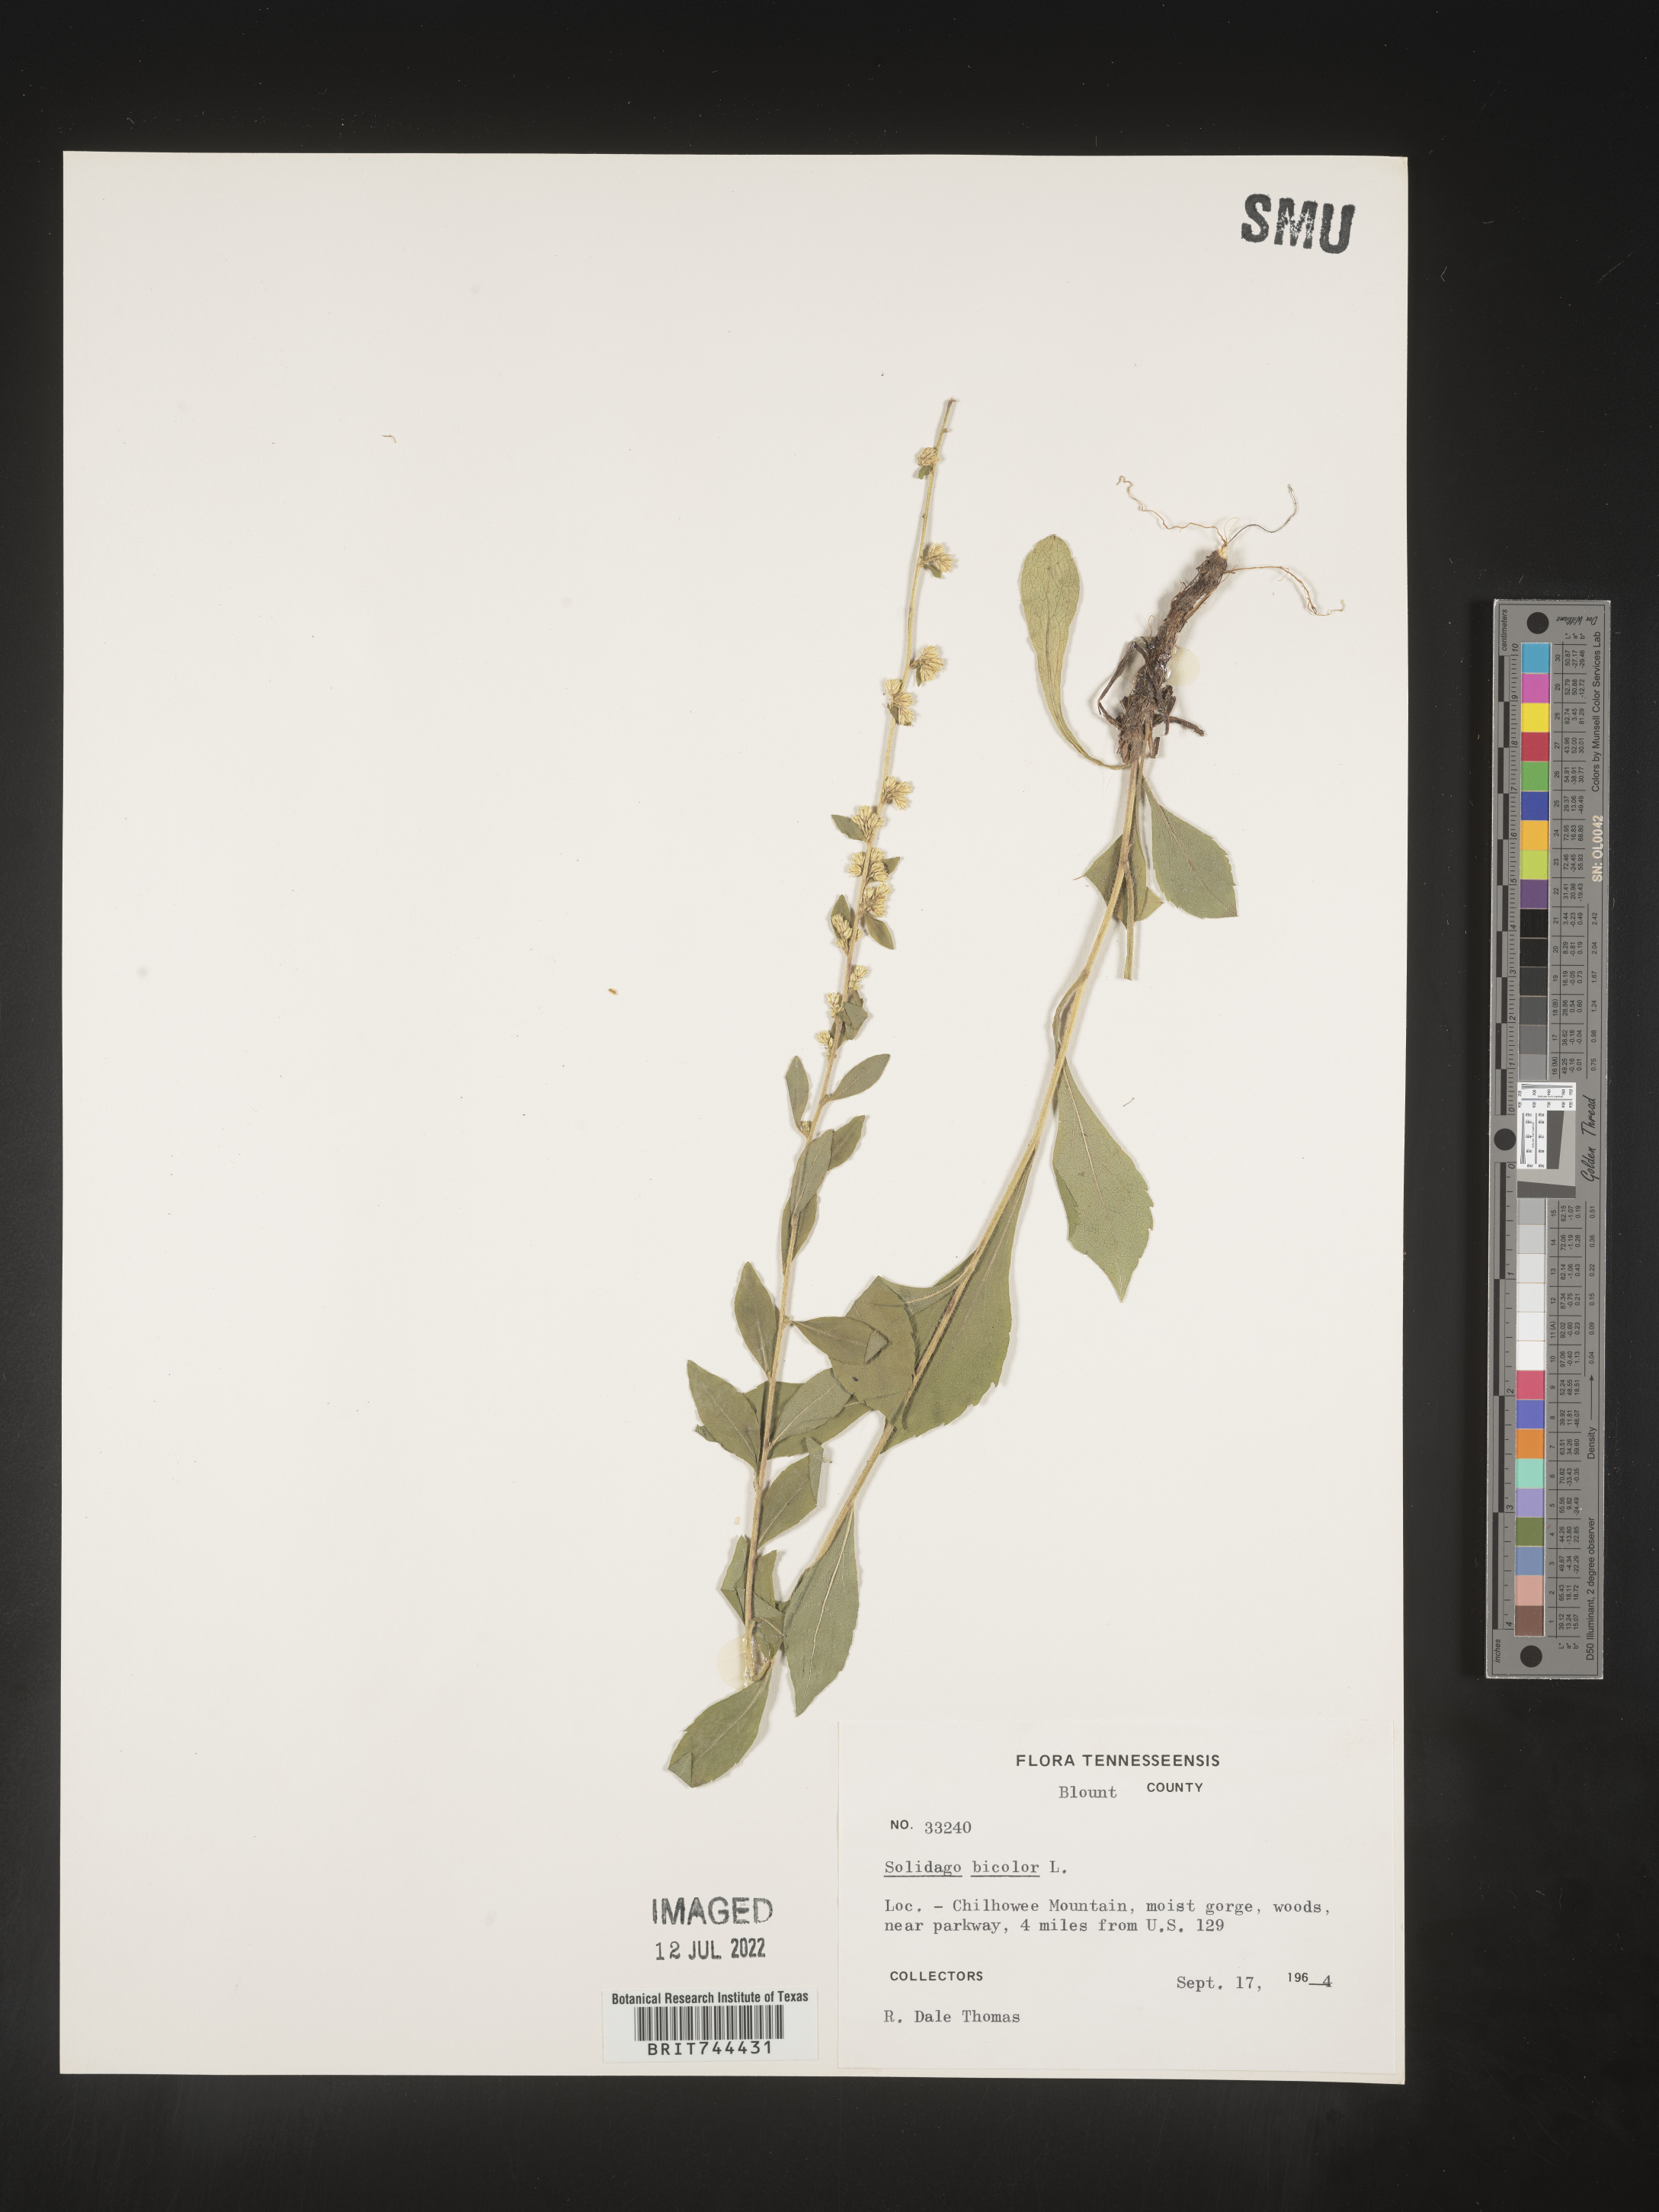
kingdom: Plantae
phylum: Tracheophyta
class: Magnoliopsida
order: Asterales
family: Asteraceae
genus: Solidago
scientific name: Solidago bicolor
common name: Silverrod
